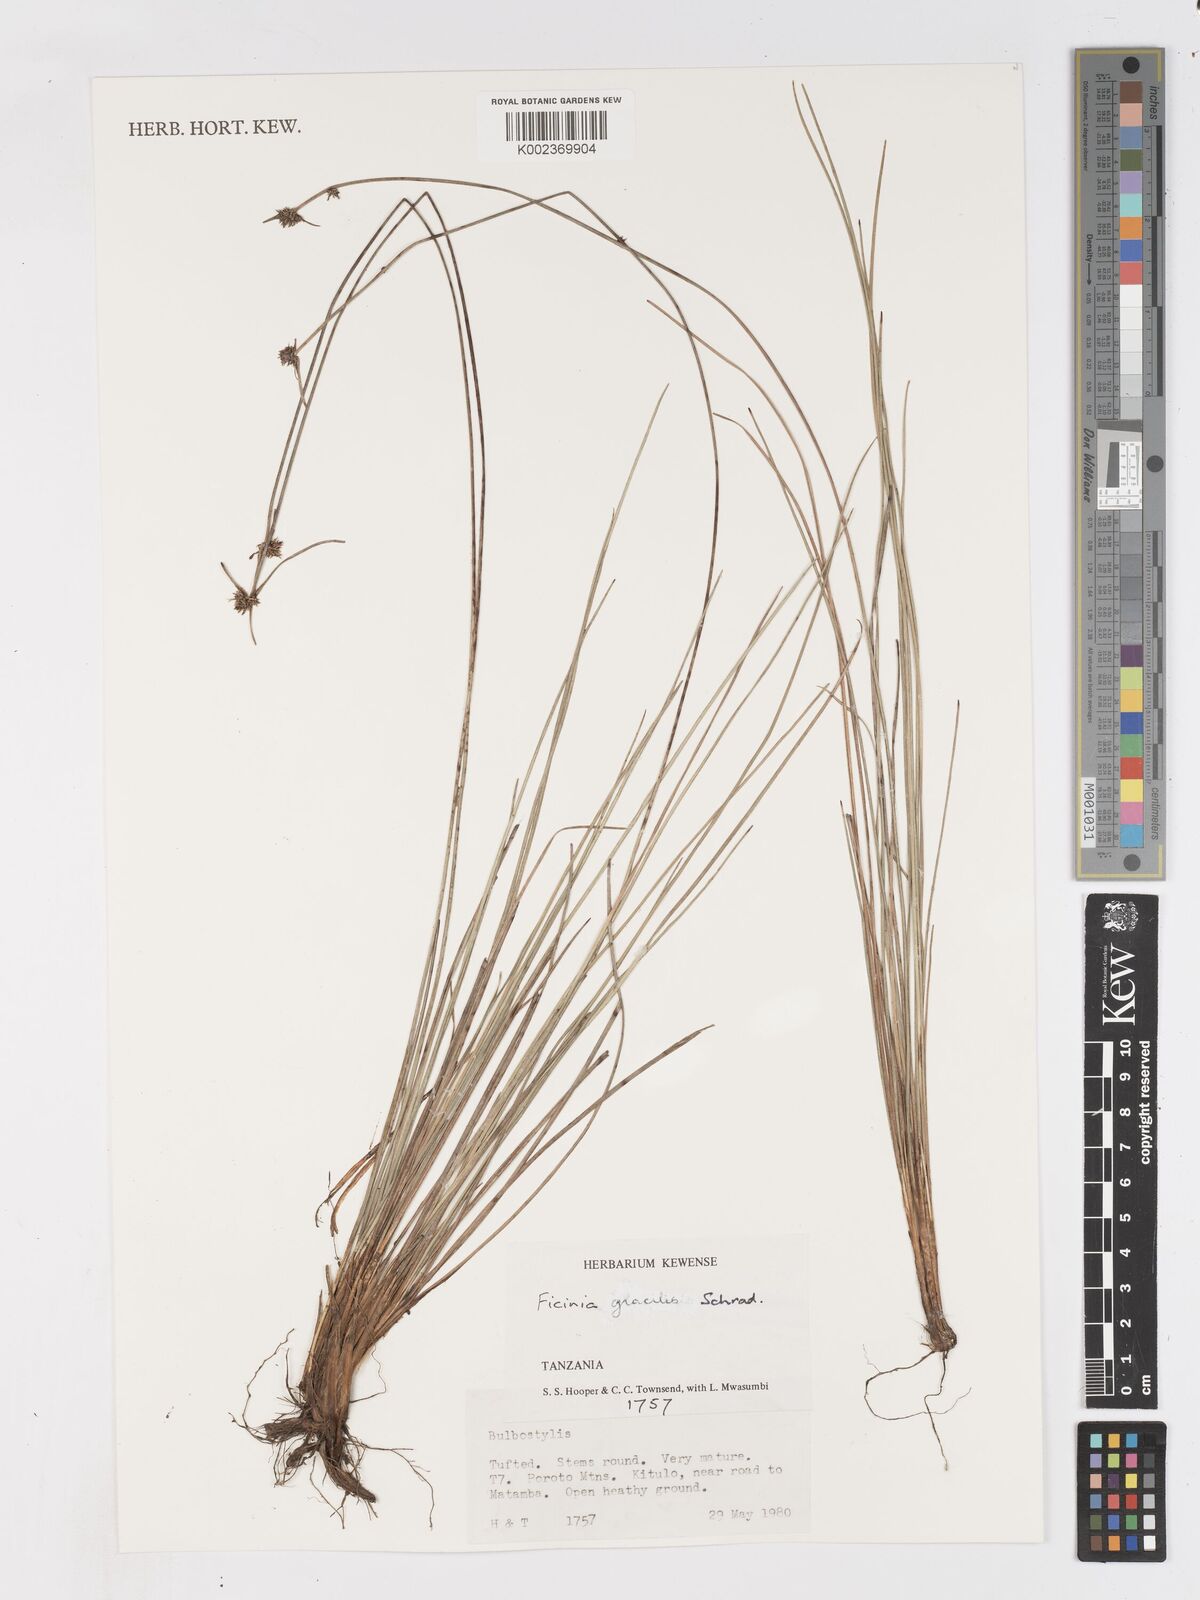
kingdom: Plantae
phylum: Tracheophyta
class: Liliopsida
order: Poales
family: Cyperaceae
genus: Ficinia
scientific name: Ficinia gracilis
